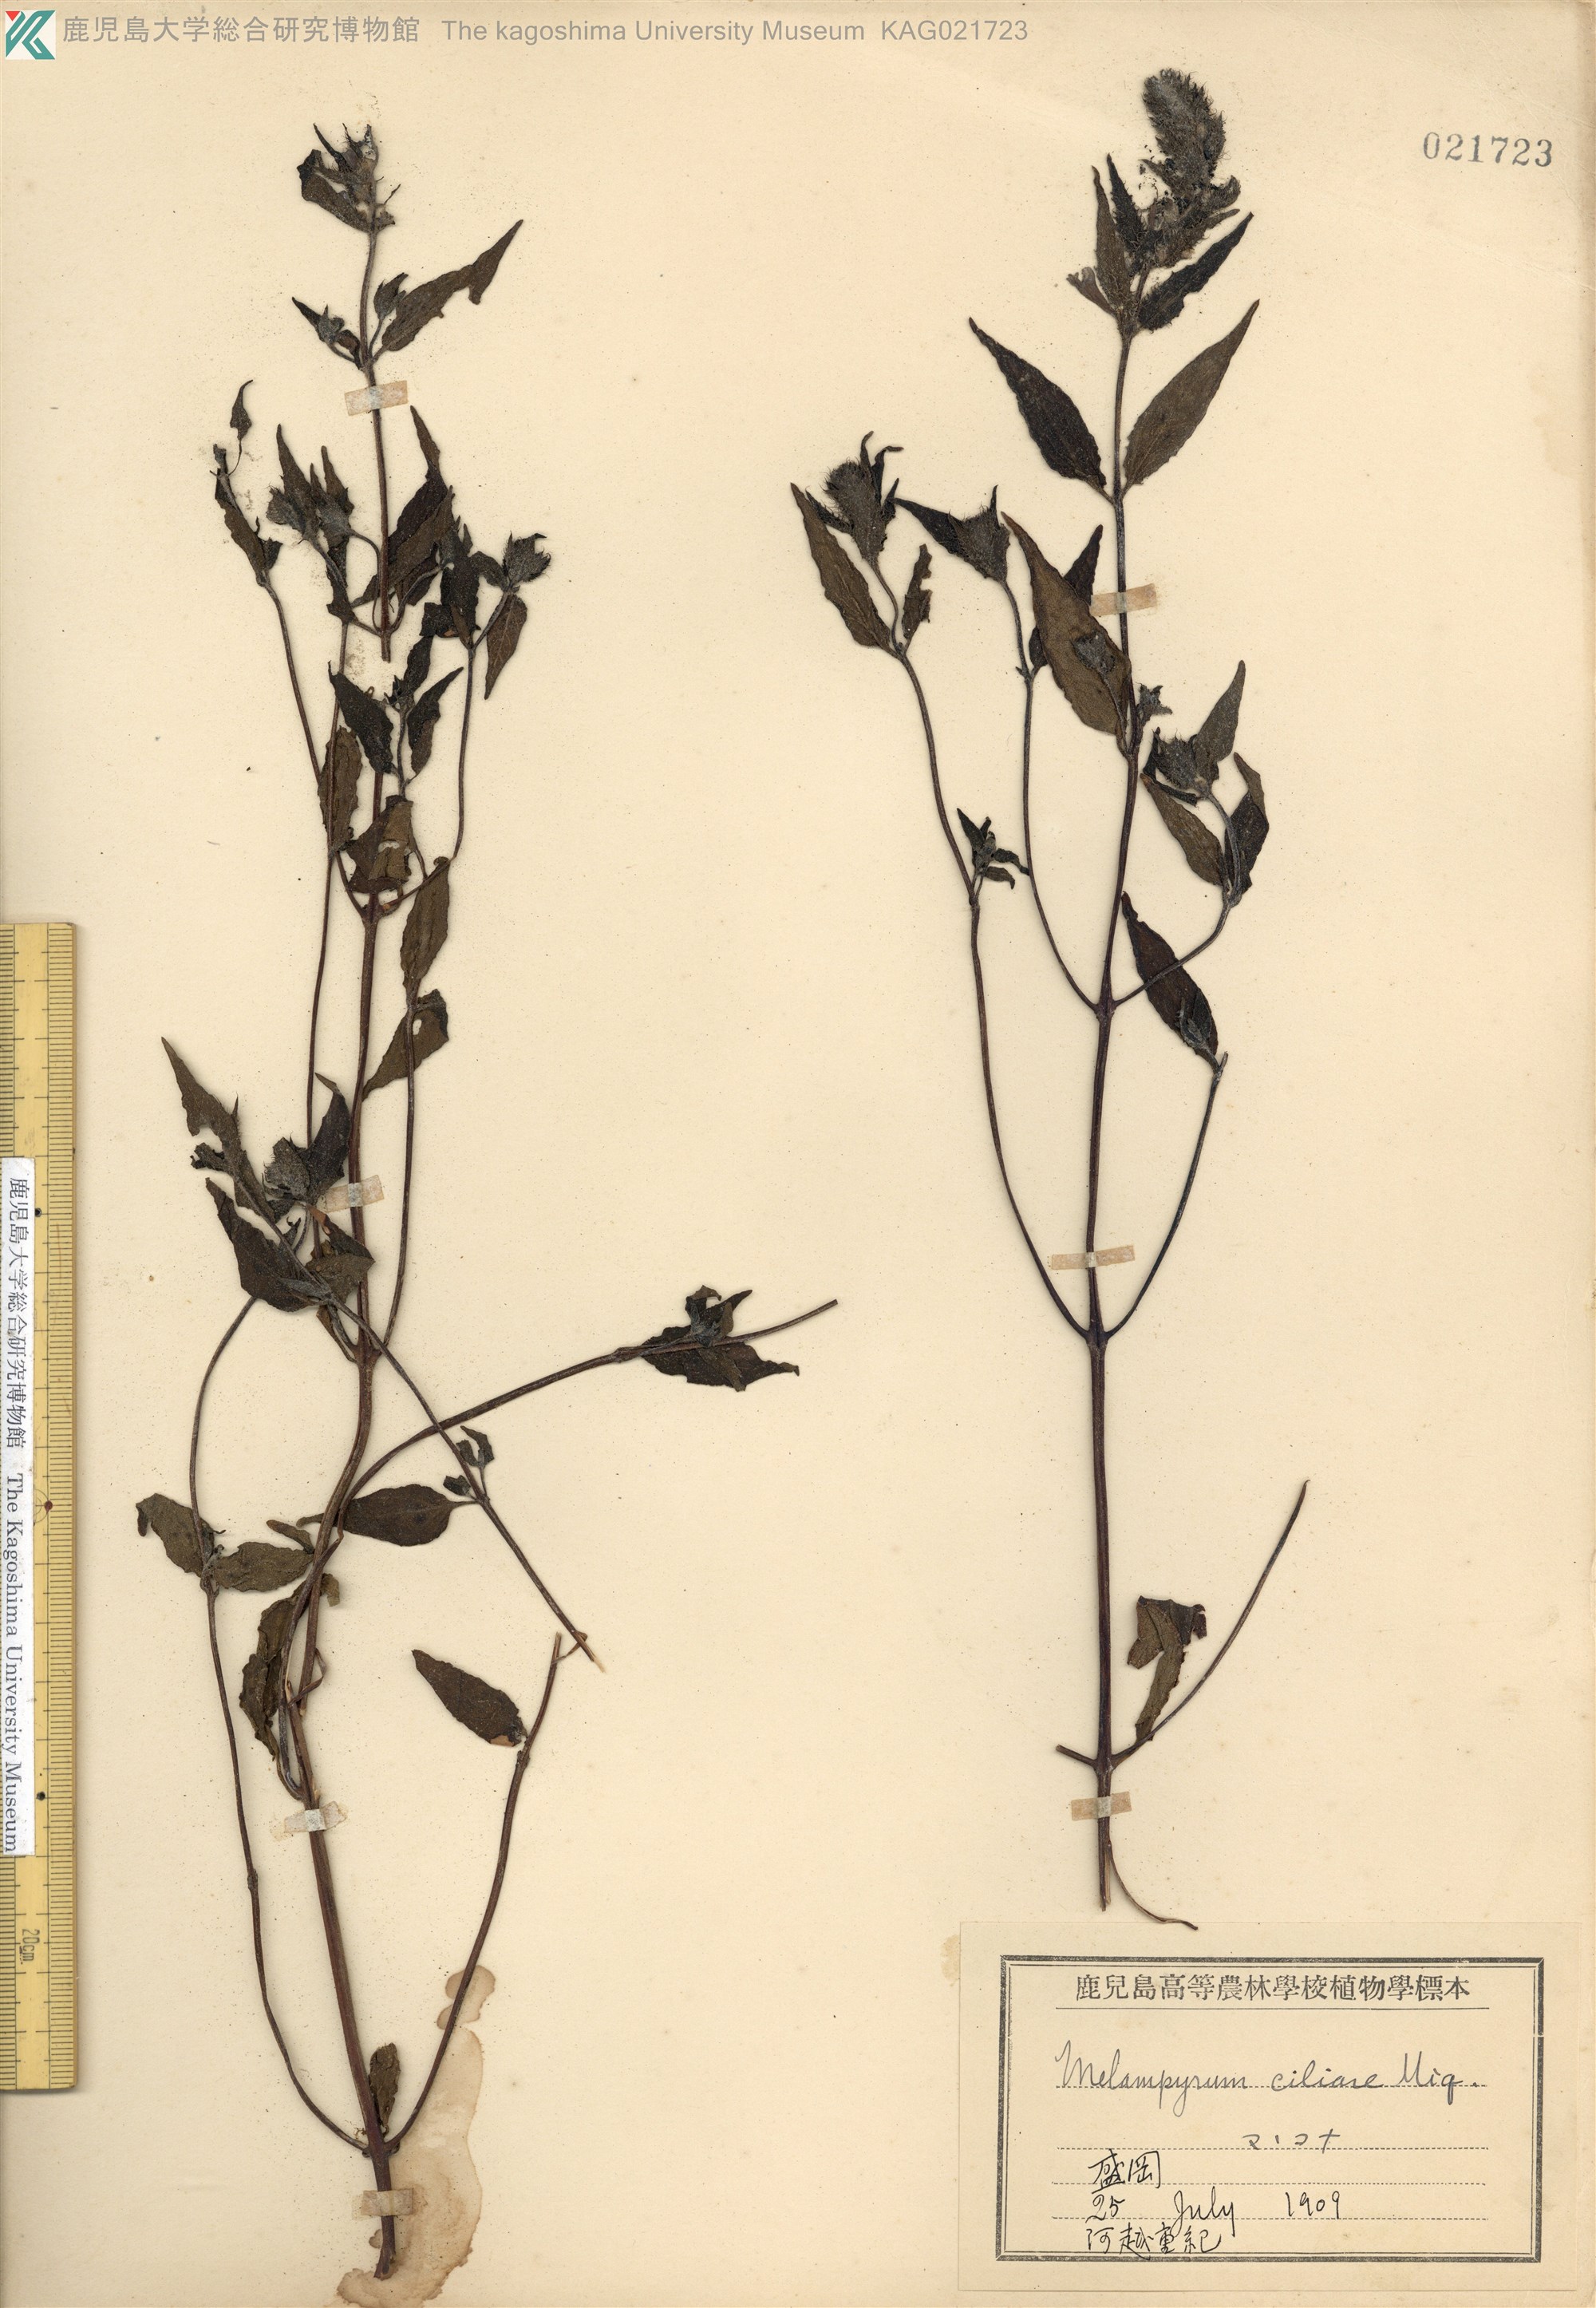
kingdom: Plantae
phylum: Tracheophyta
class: Magnoliopsida
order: Lamiales
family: Orobanchaceae
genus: Melampyrum
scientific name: Melampyrum roseum
